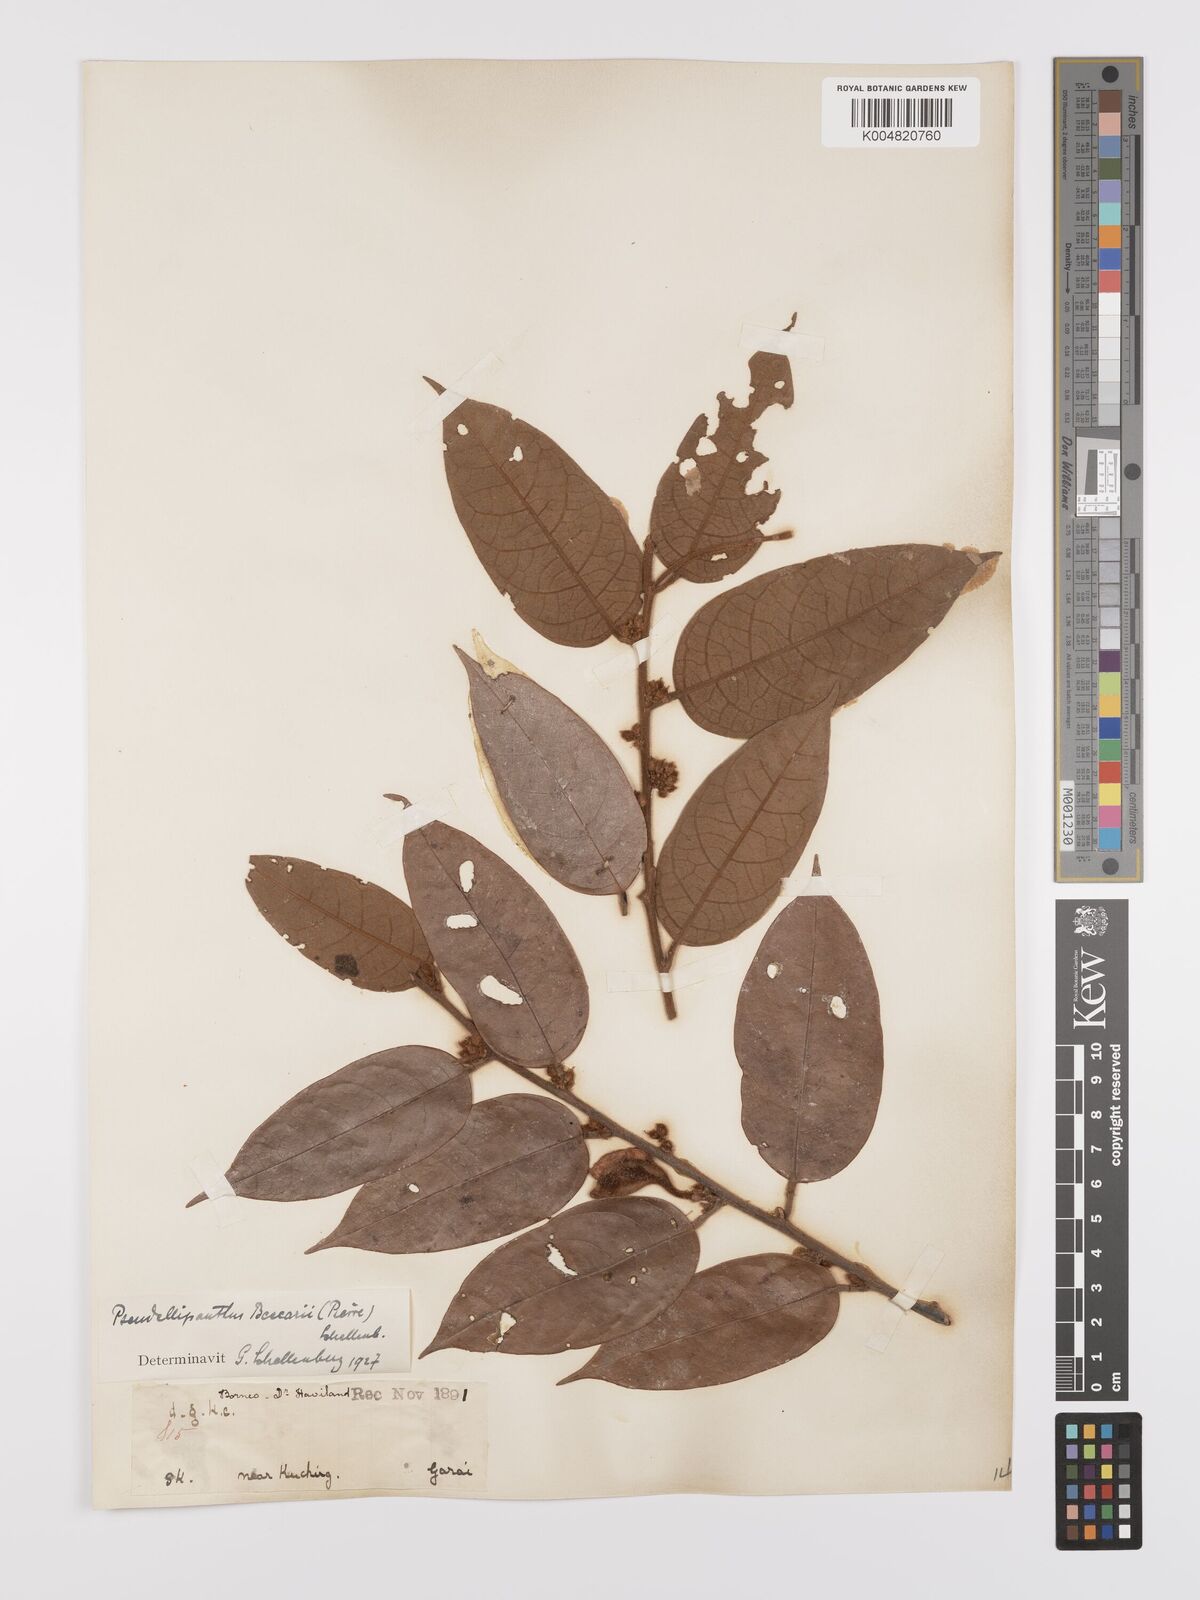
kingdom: Plantae
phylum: Tracheophyta
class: Magnoliopsida
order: Oxalidales
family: Connaraceae
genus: Ellipanthus
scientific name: Ellipanthus beccarii
